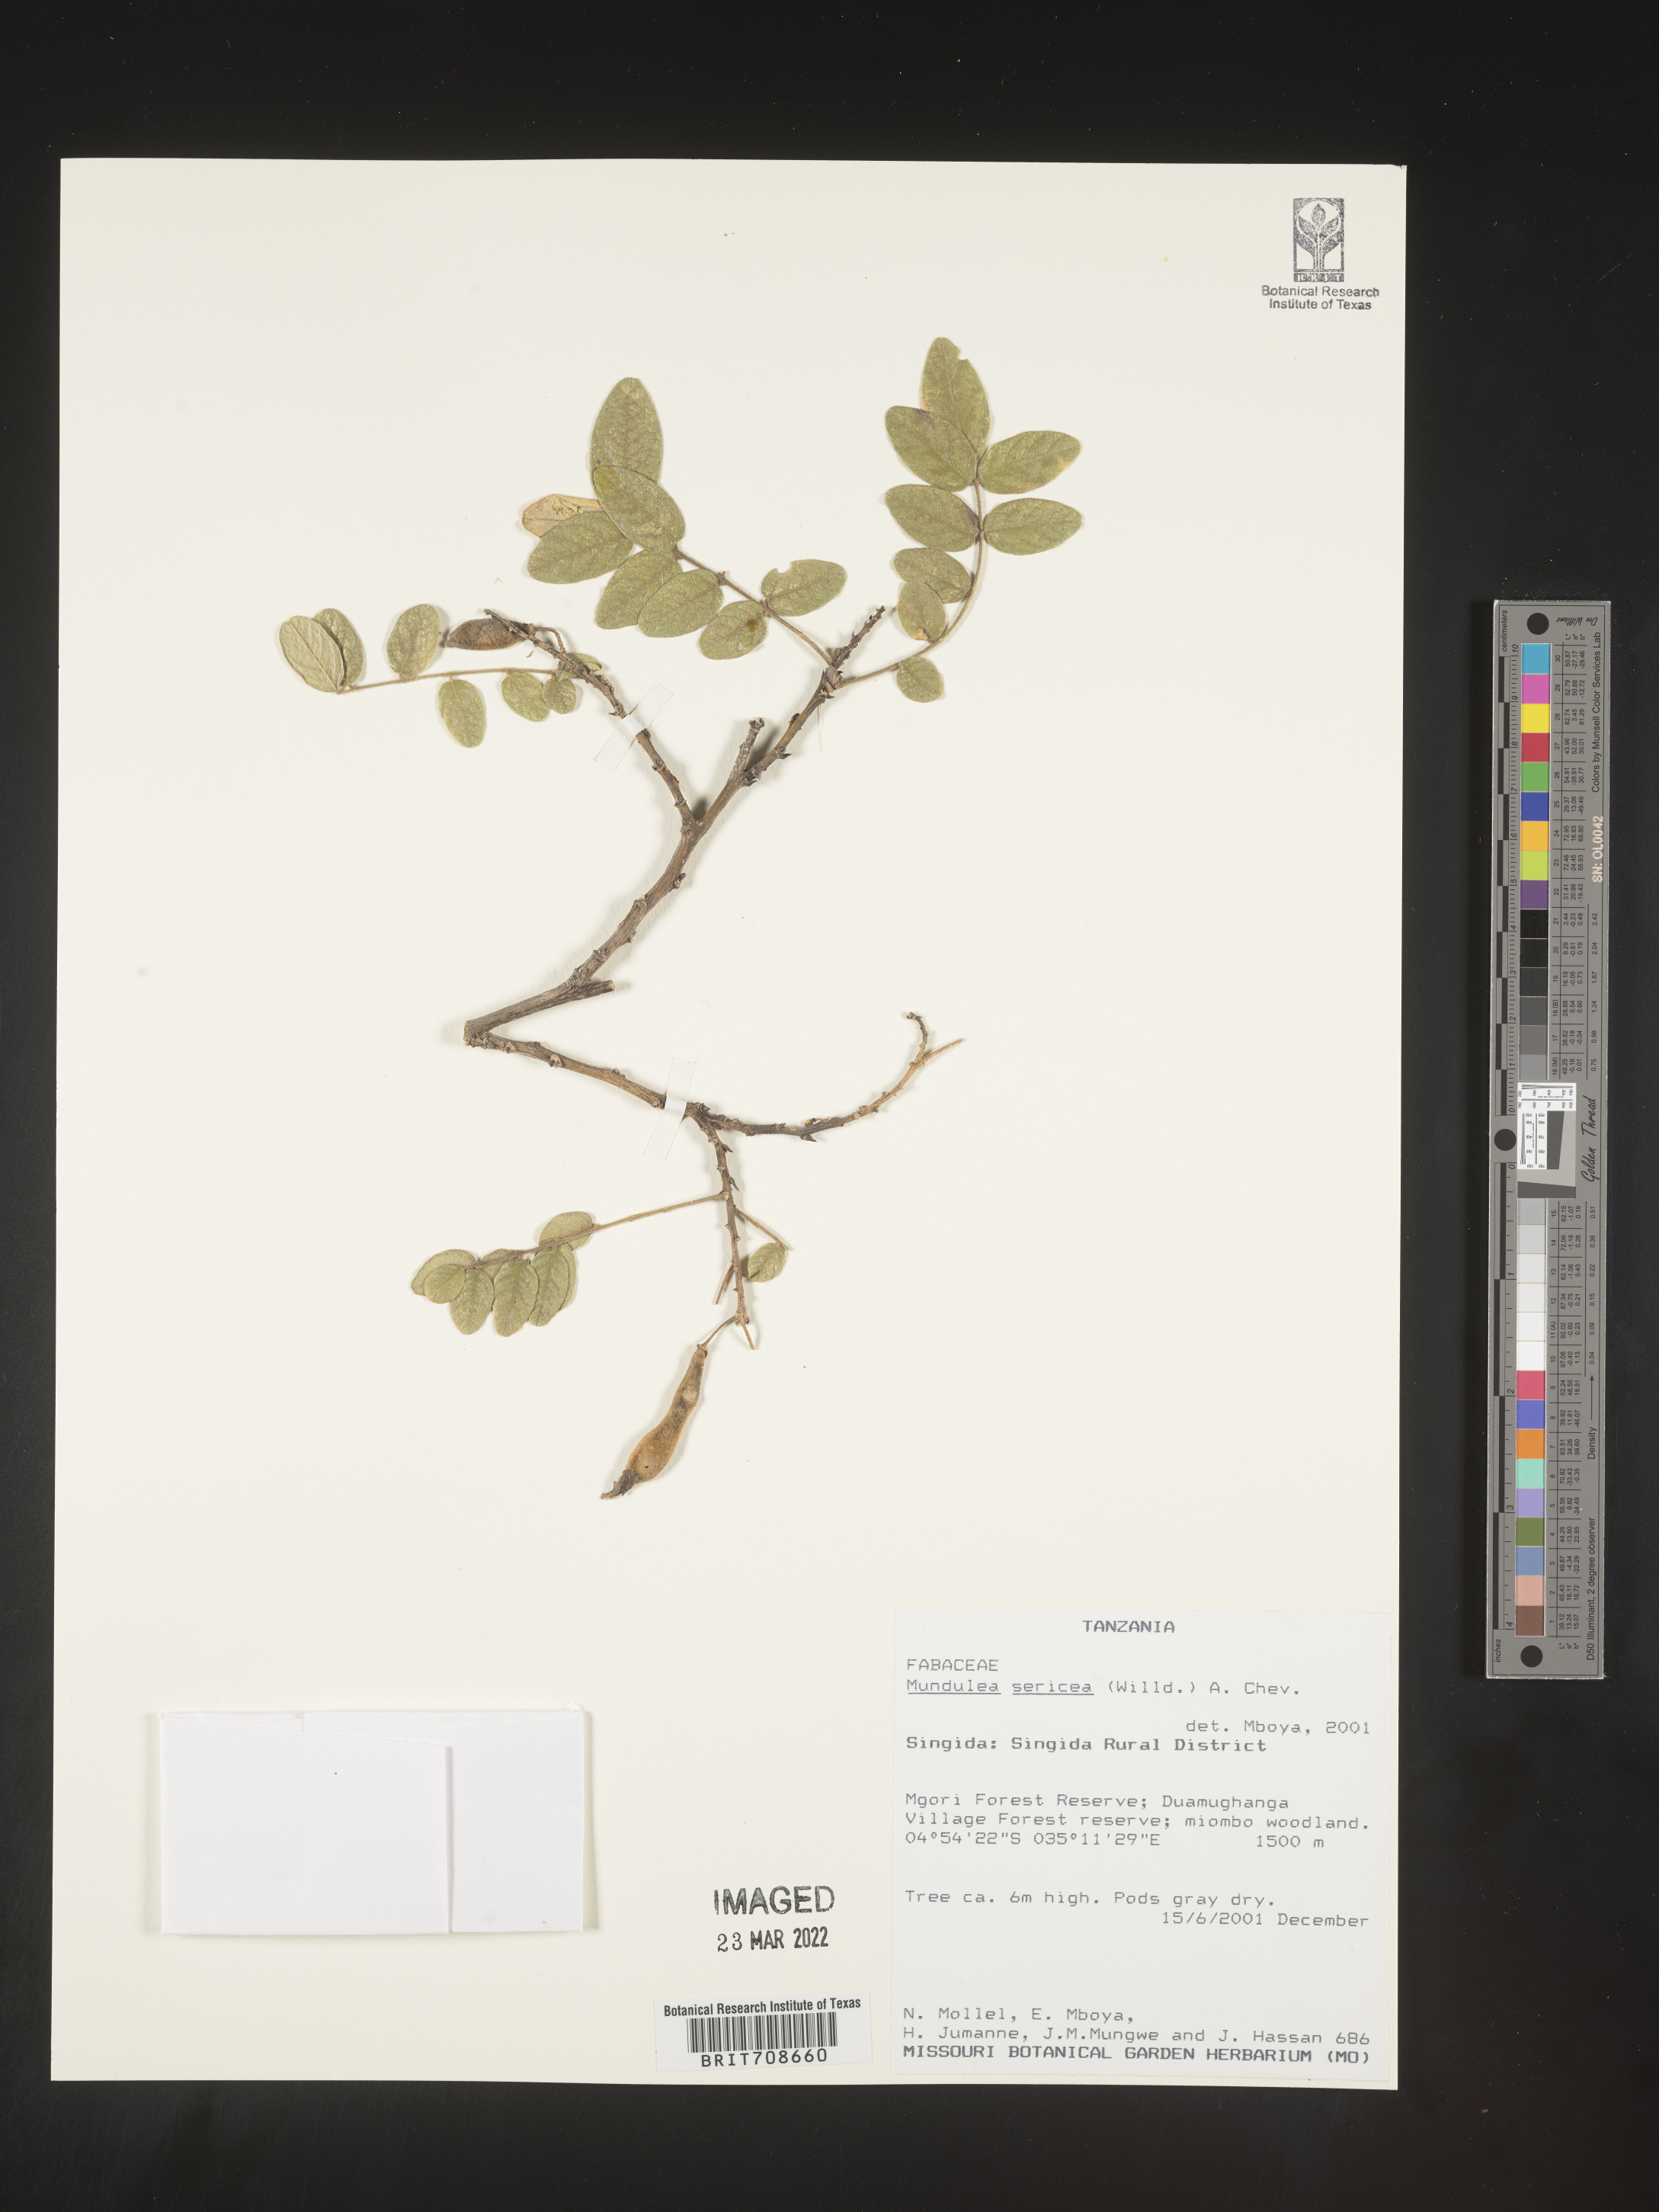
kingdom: Plantae
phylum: Tracheophyta
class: Magnoliopsida
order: Fabales
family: Fabaceae
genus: Mundulea
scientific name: Mundulea
